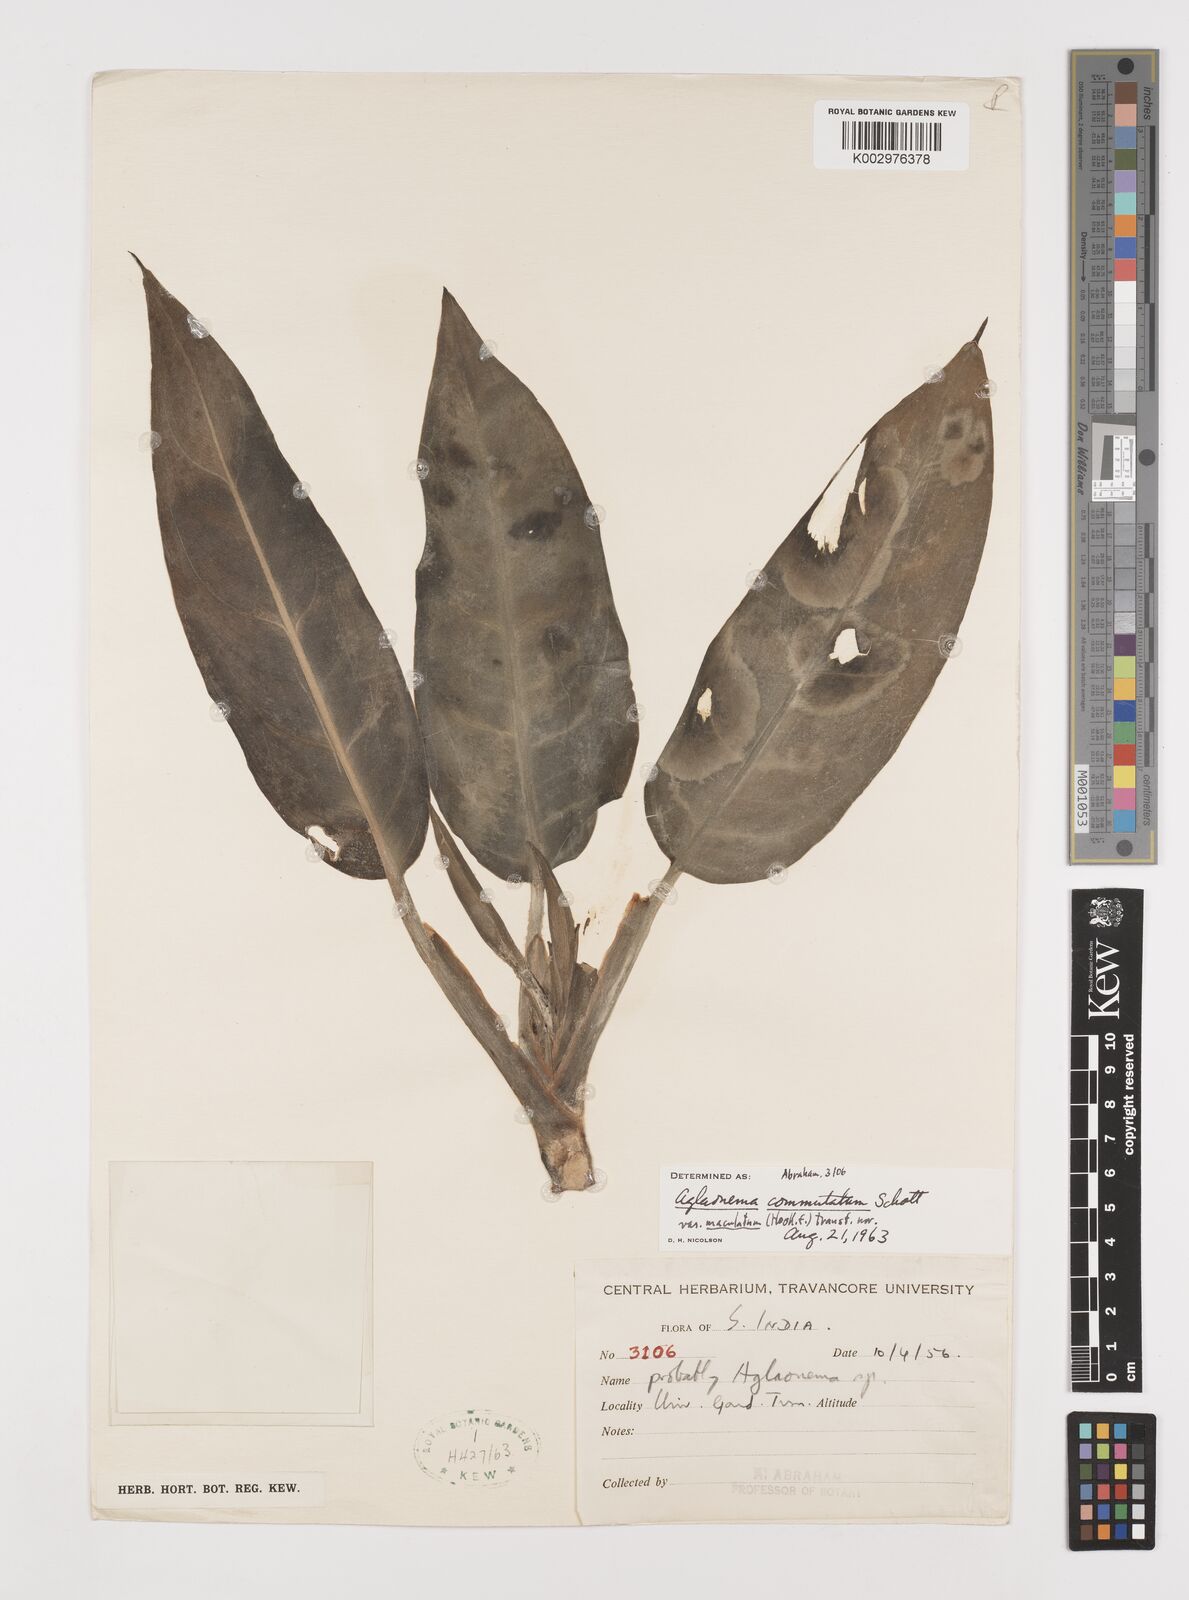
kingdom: Plantae
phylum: Tracheophyta
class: Liliopsida
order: Alismatales
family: Araceae
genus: Aglaonema
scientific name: Aglaonema commutatum
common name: Philippine evergreen
